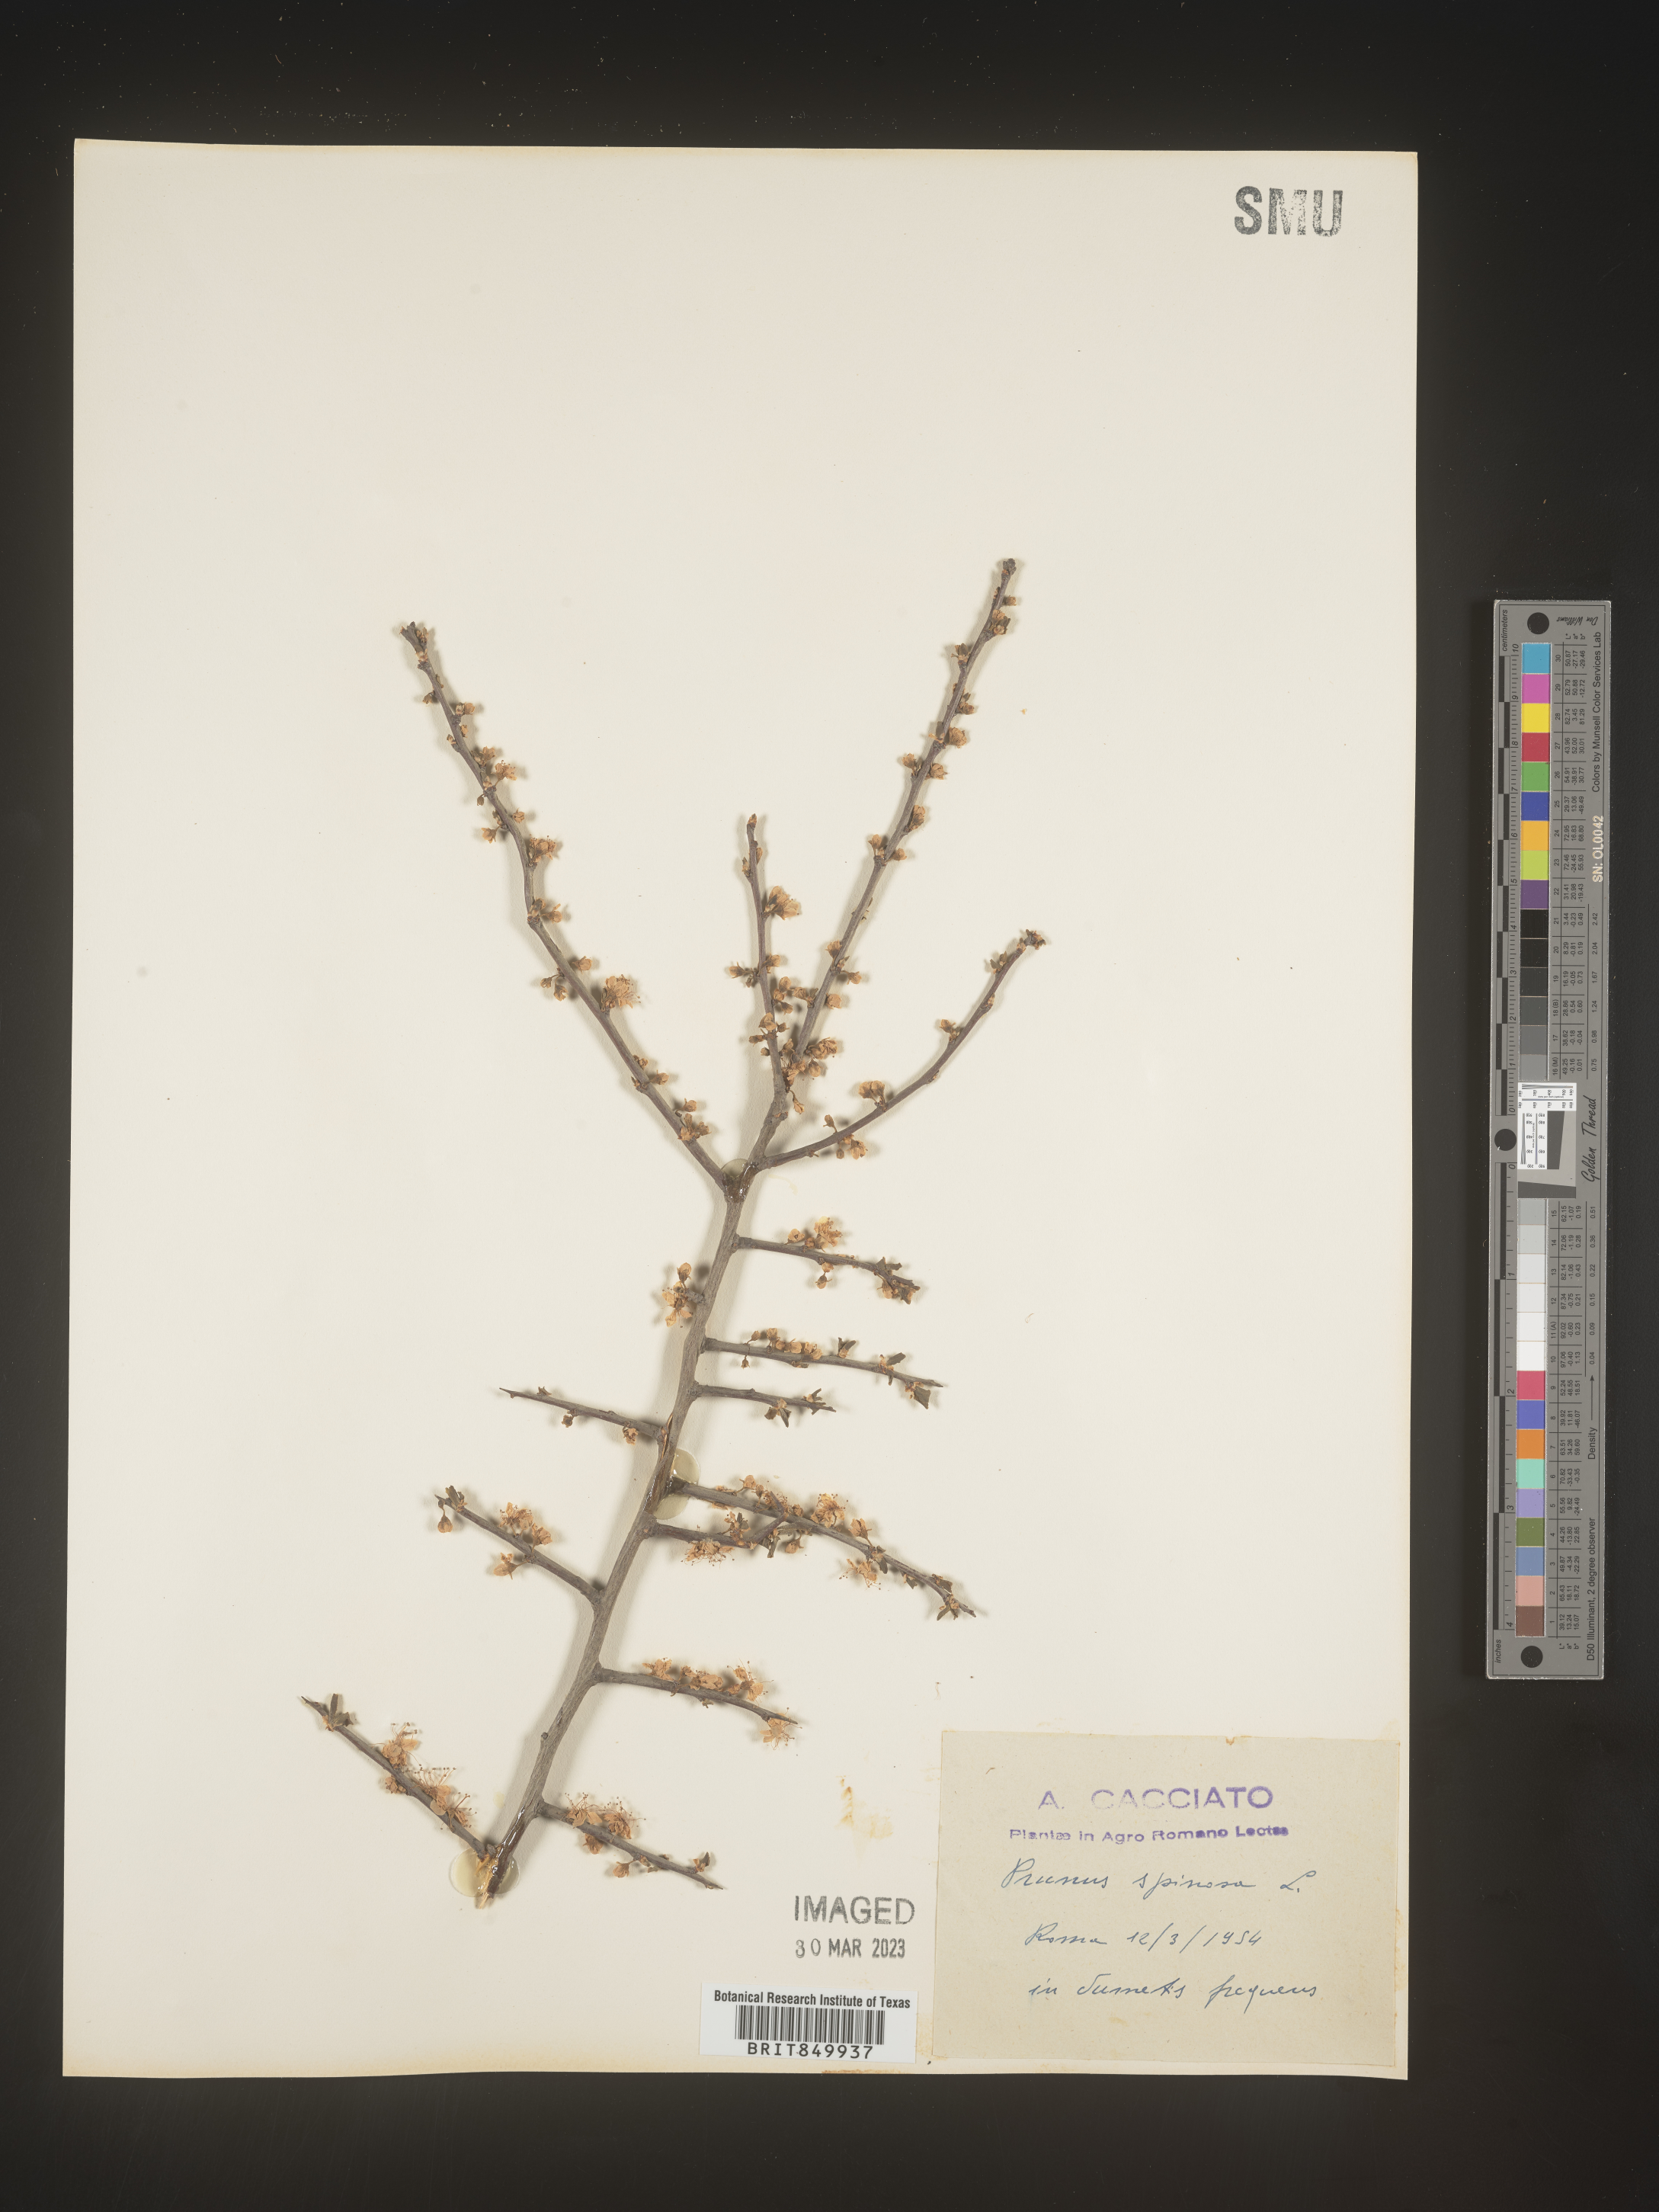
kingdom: Plantae
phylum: Tracheophyta
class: Magnoliopsida
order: Rosales
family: Rosaceae
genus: Pyrus
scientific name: Pyrus
